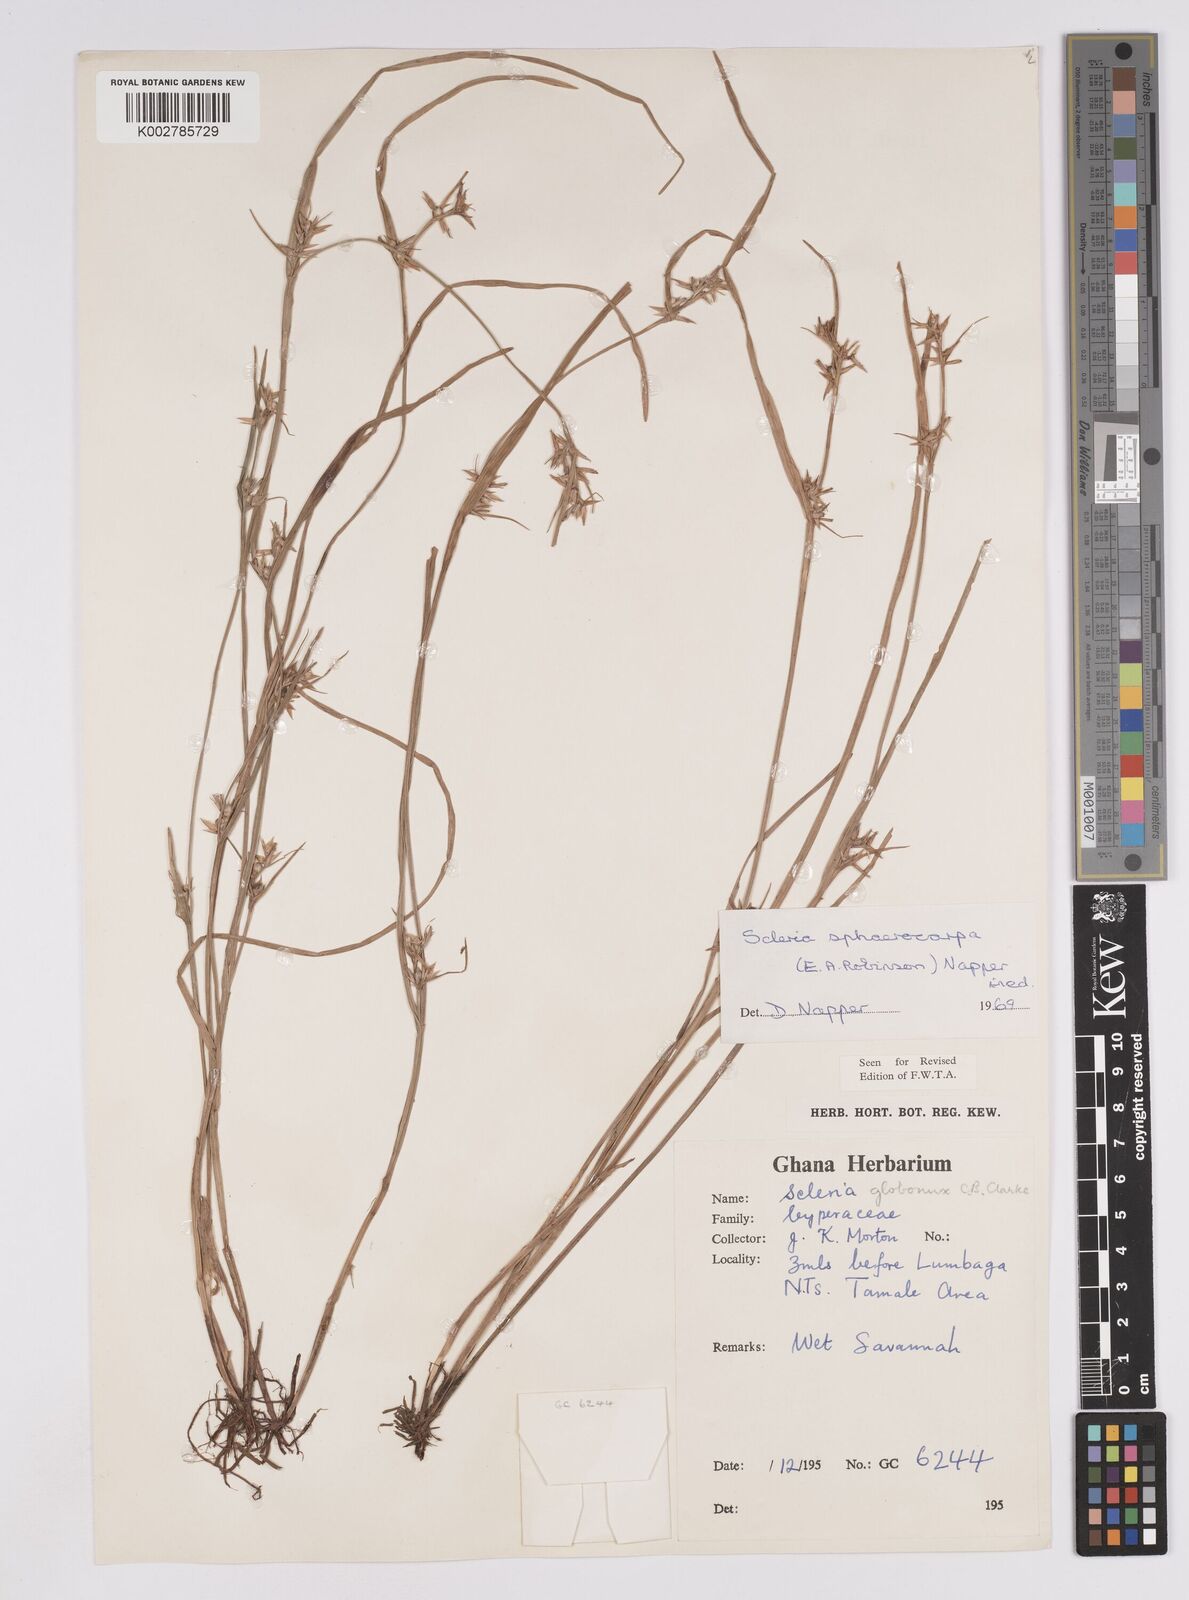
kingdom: Plantae
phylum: Tracheophyta
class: Liliopsida
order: Poales
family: Cyperaceae
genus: Scleria
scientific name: Scleria tessellata
